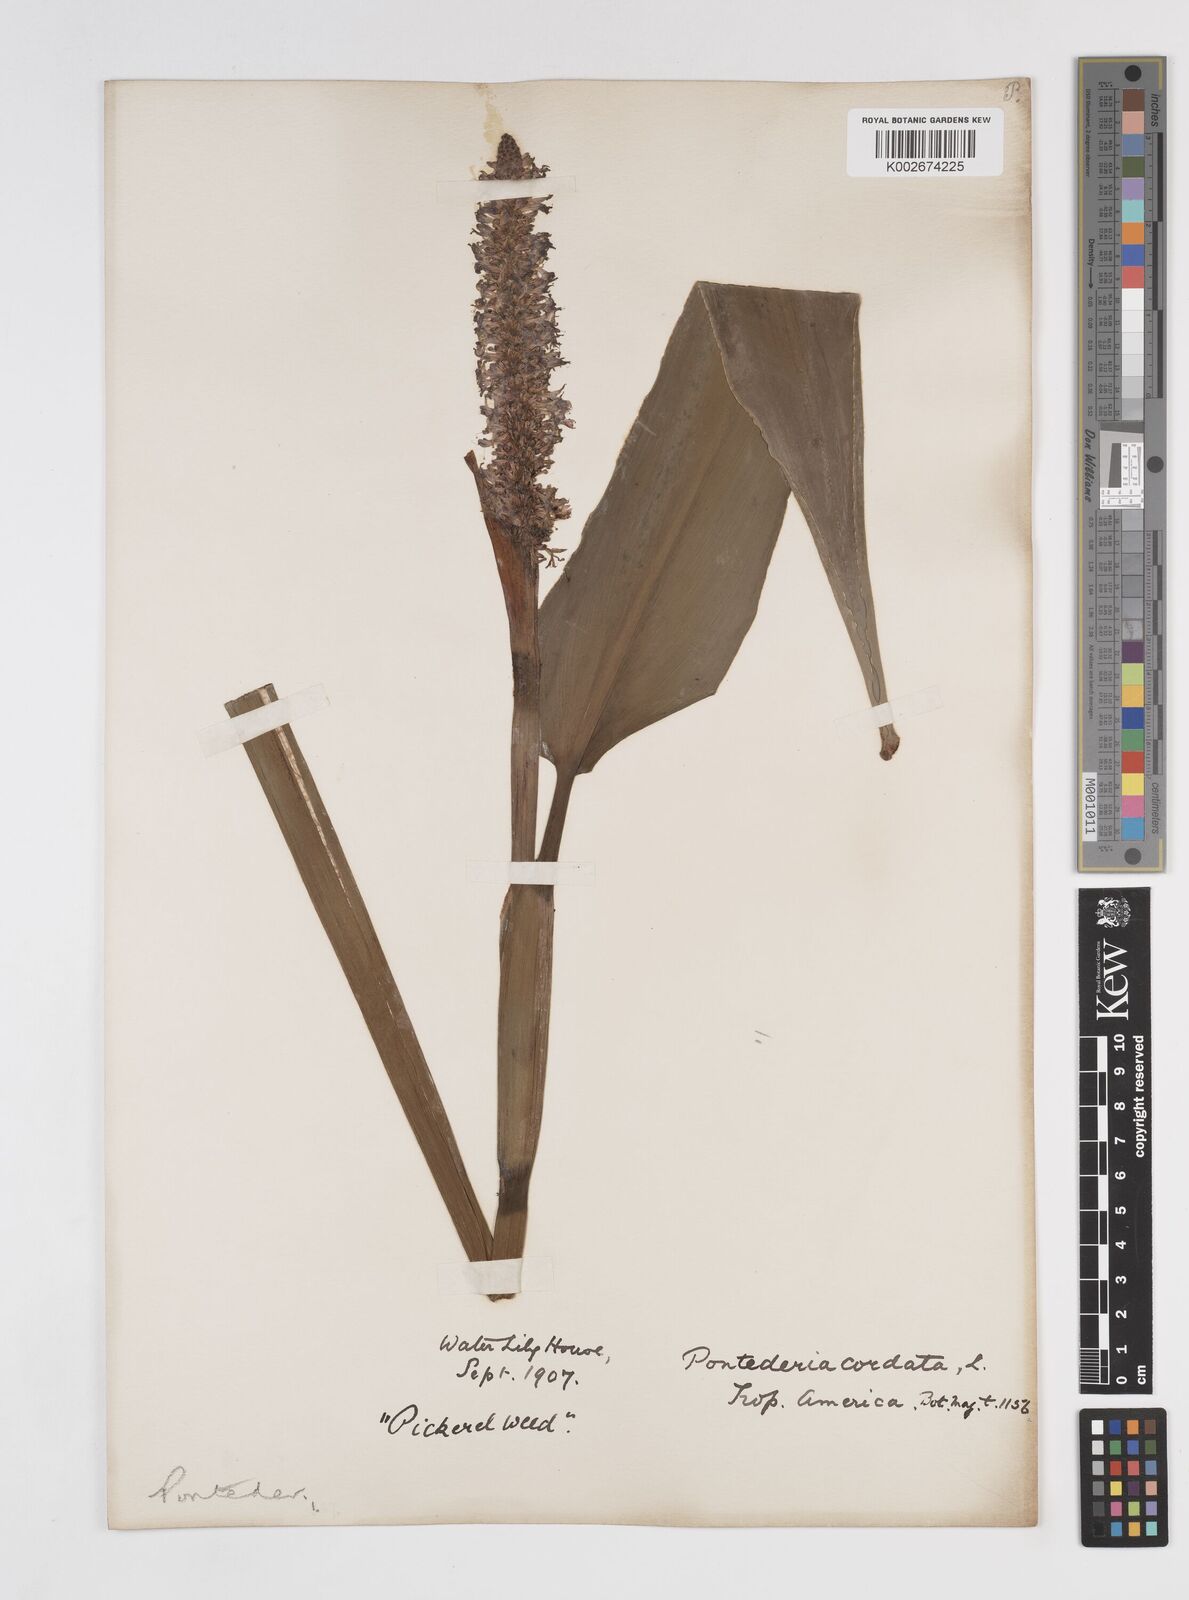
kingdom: Plantae
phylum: Tracheophyta
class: Liliopsida
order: Commelinales
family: Pontederiaceae
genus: Pontederia
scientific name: Pontederia
